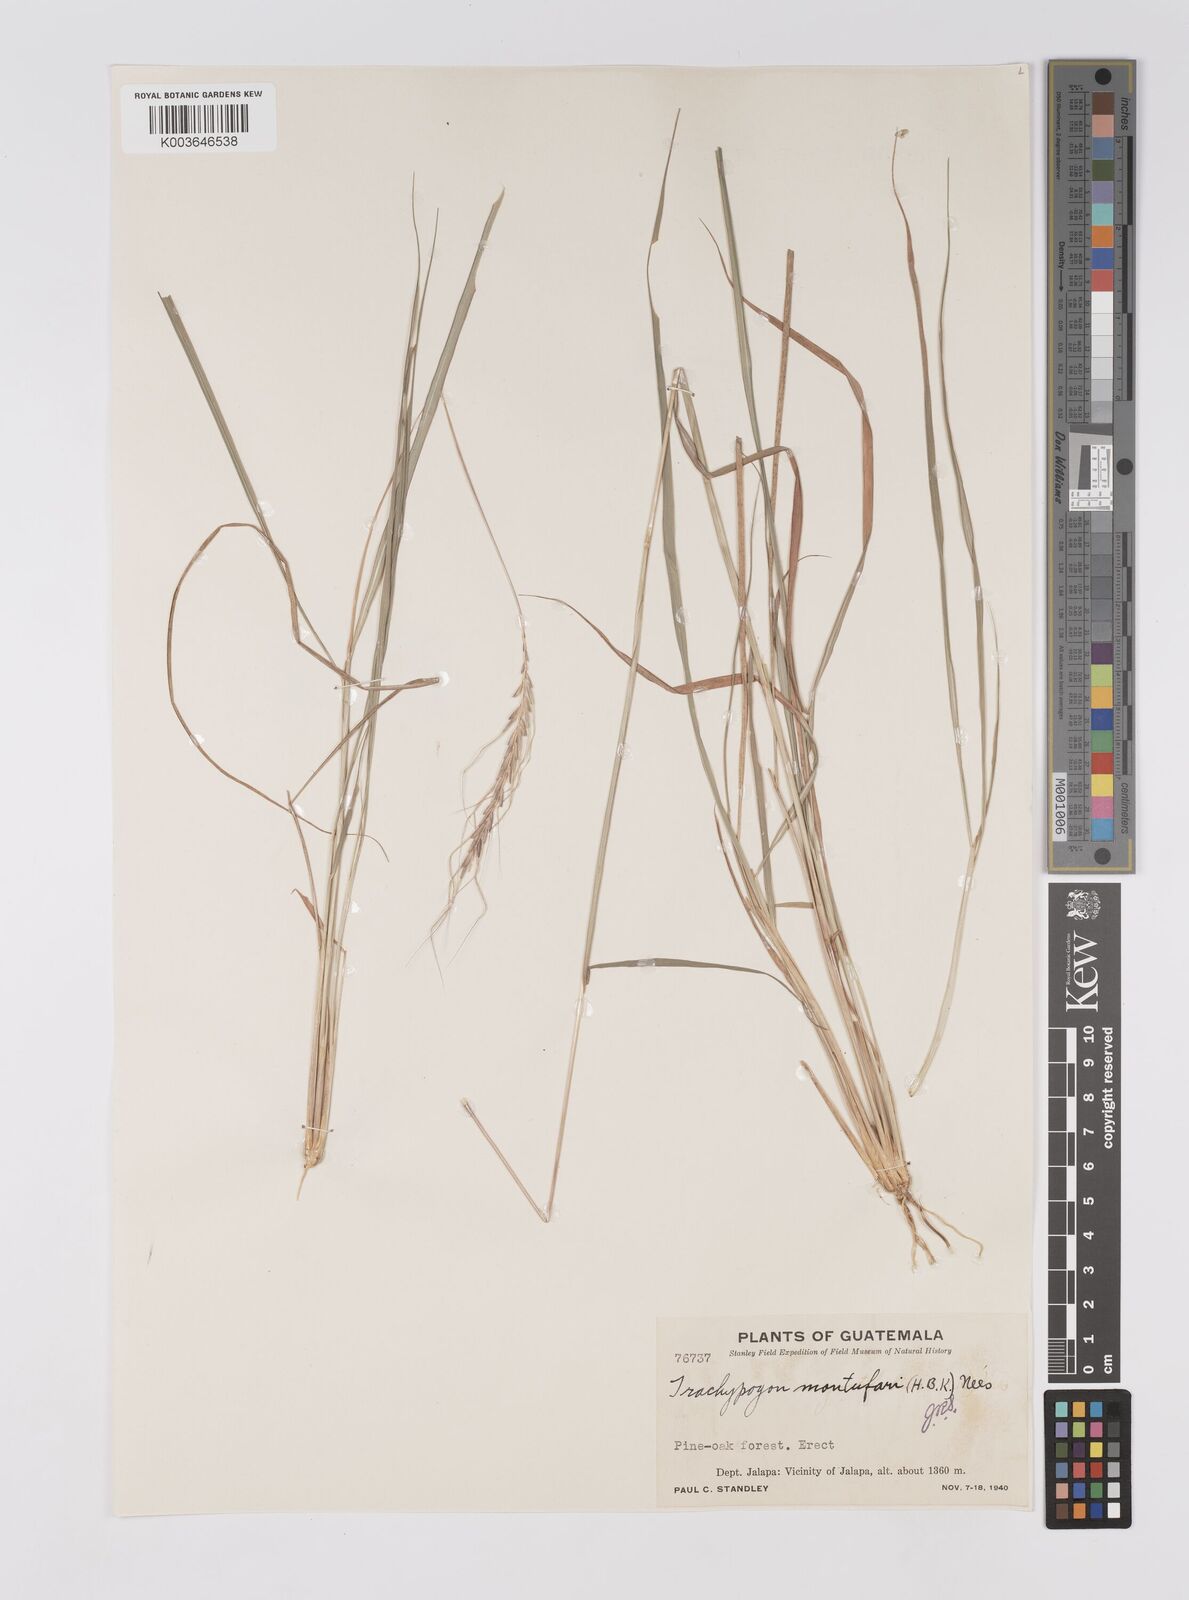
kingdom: Plantae
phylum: Tracheophyta
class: Liliopsida
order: Poales
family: Poaceae
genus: Trachypogon
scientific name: Trachypogon spicatus
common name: Crinkle-awn
